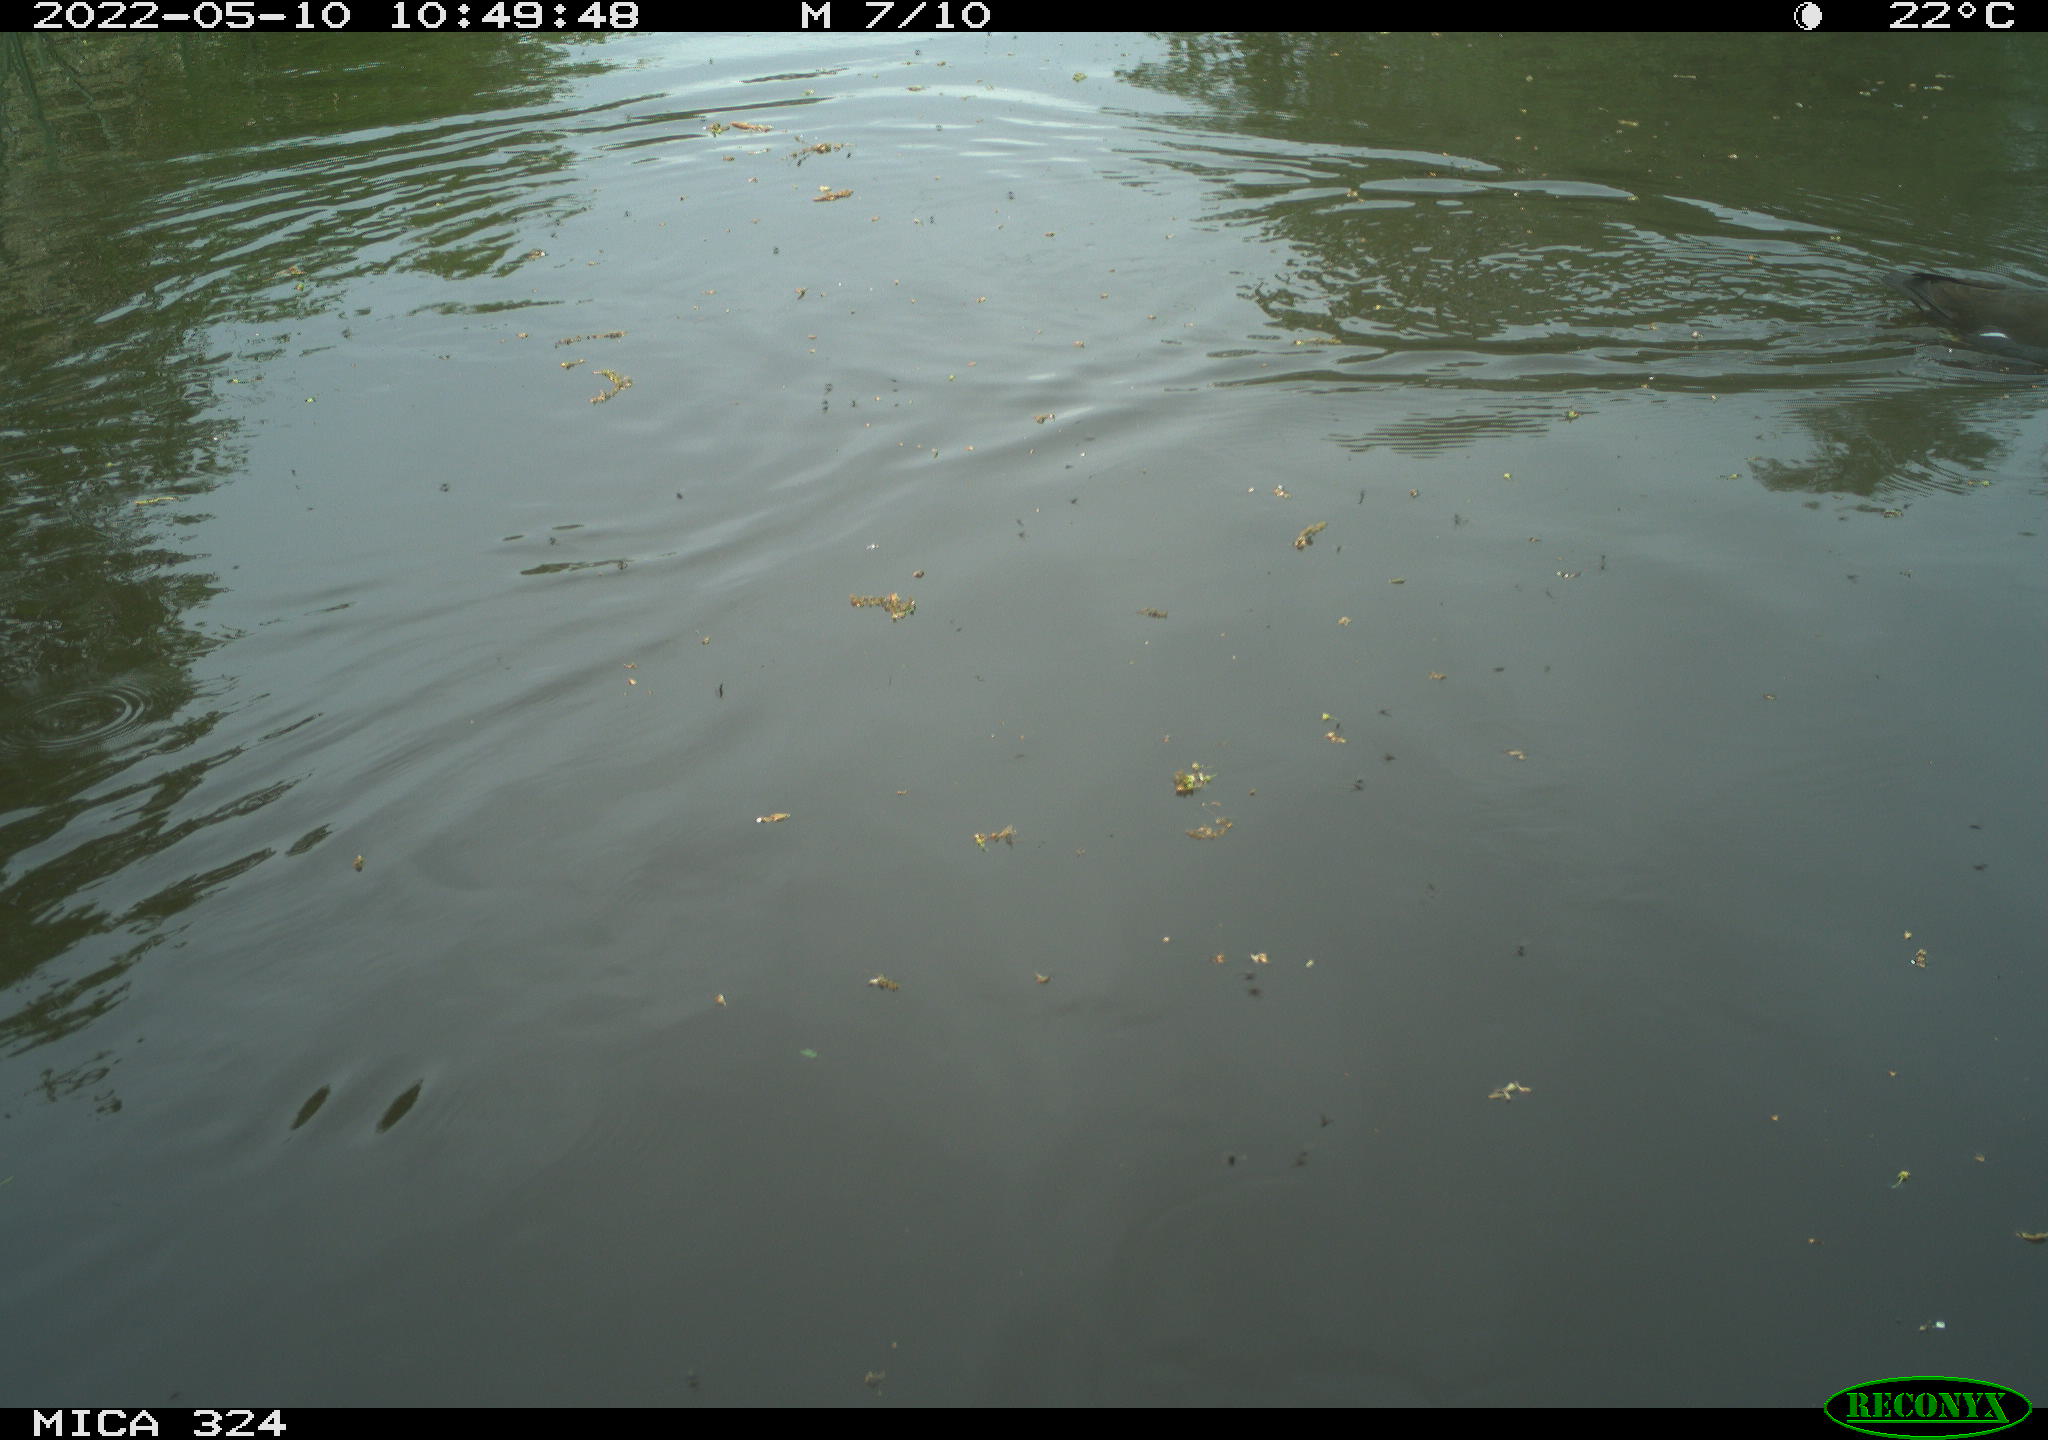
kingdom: Animalia
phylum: Chordata
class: Aves
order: Gruiformes
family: Rallidae
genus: Gallinula
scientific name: Gallinula chloropus
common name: Common moorhen
